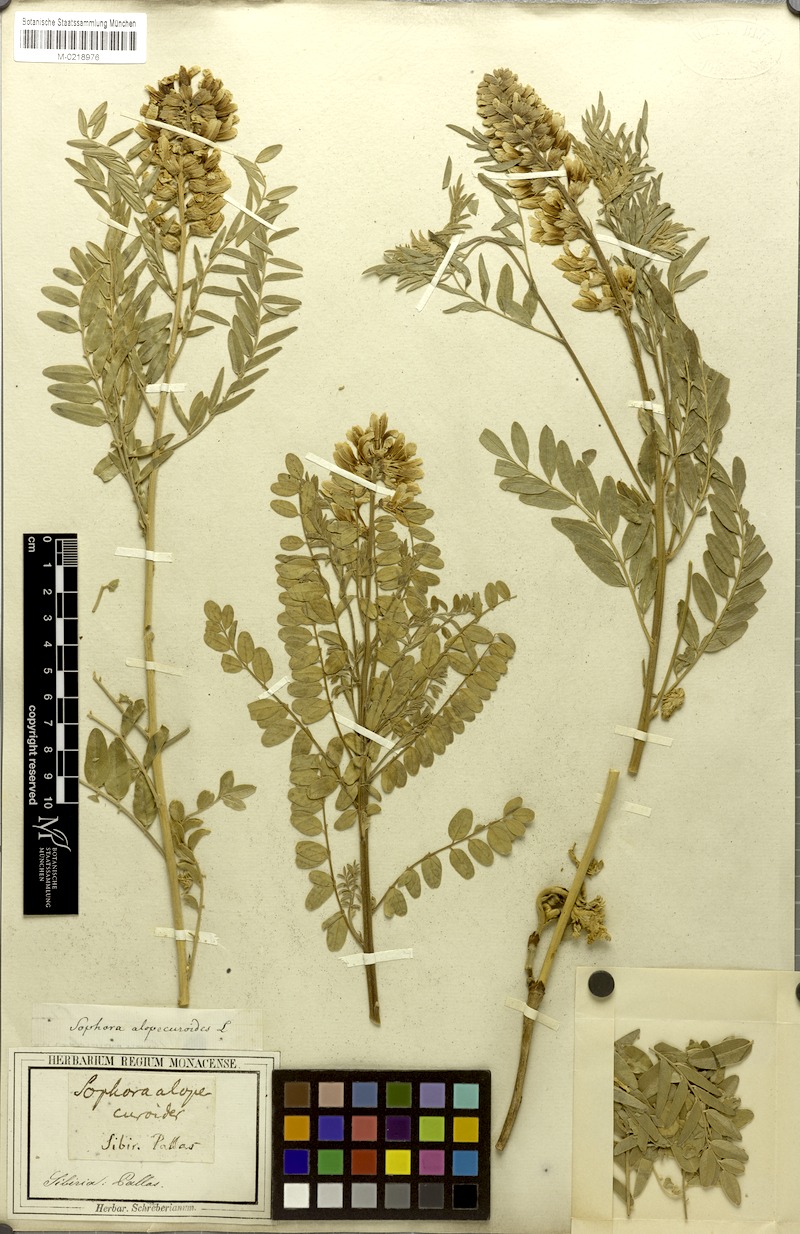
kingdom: Plantae
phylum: Tracheophyta
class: Magnoliopsida
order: Fabales
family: Fabaceae
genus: Sophora
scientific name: Sophora alopecuroides
